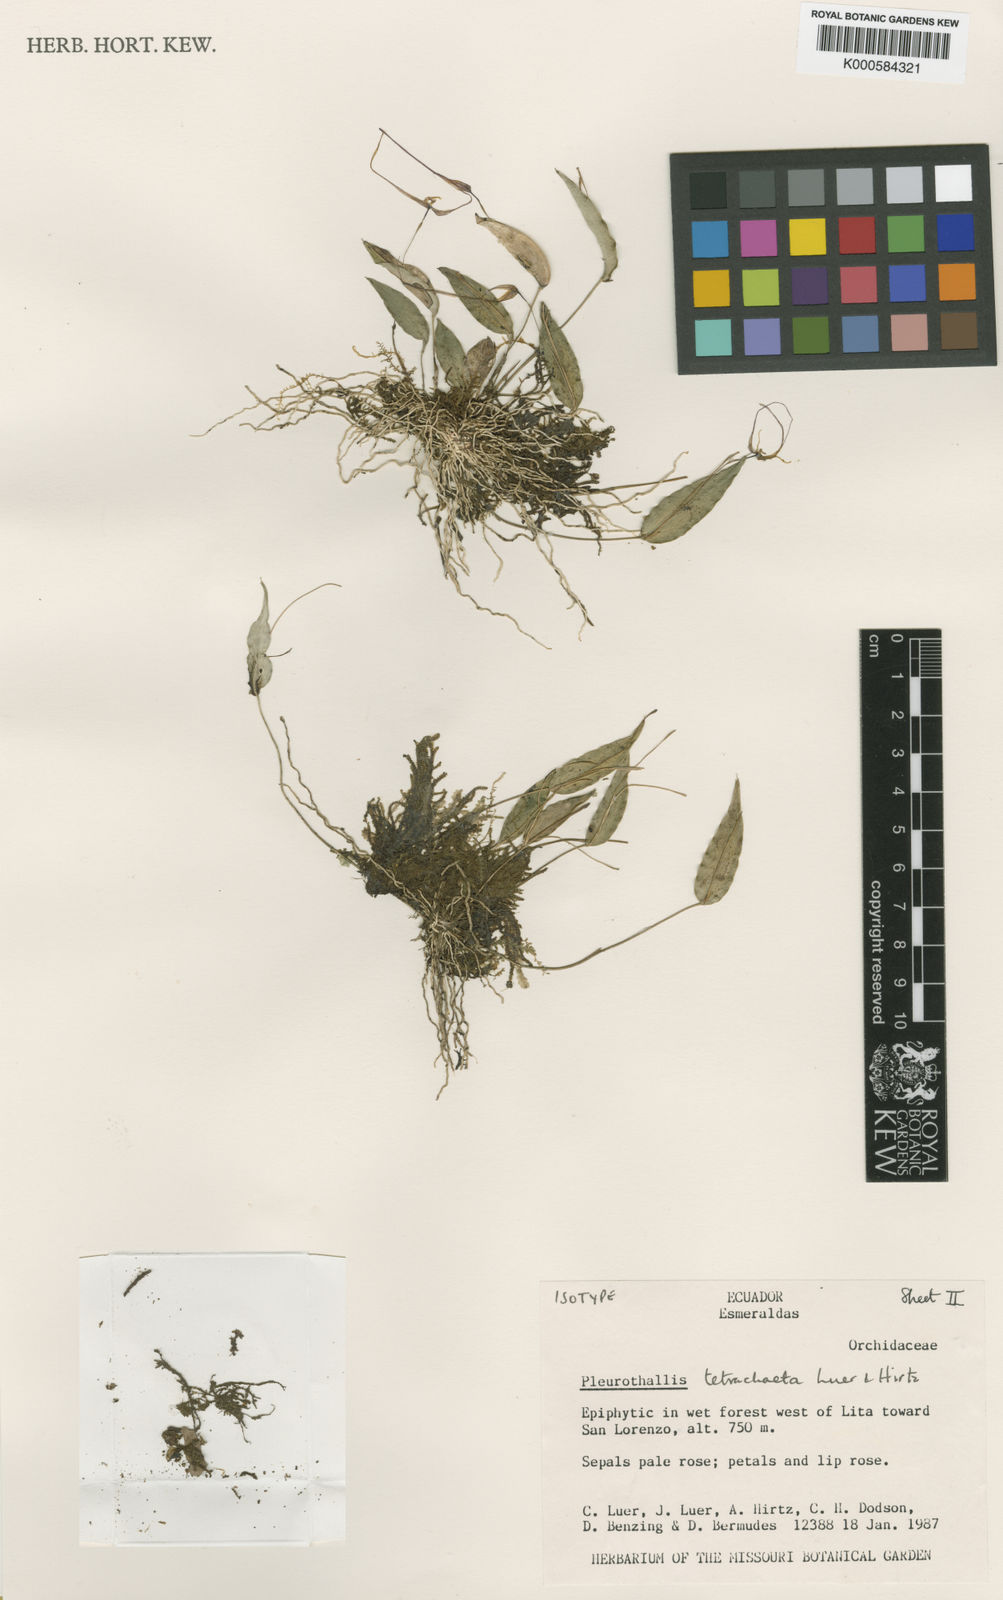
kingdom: Plantae
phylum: Tracheophyta
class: Liliopsida
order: Asparagales
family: Orchidaceae
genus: Lepanthes
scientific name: Lepanthes tetrachaeta
